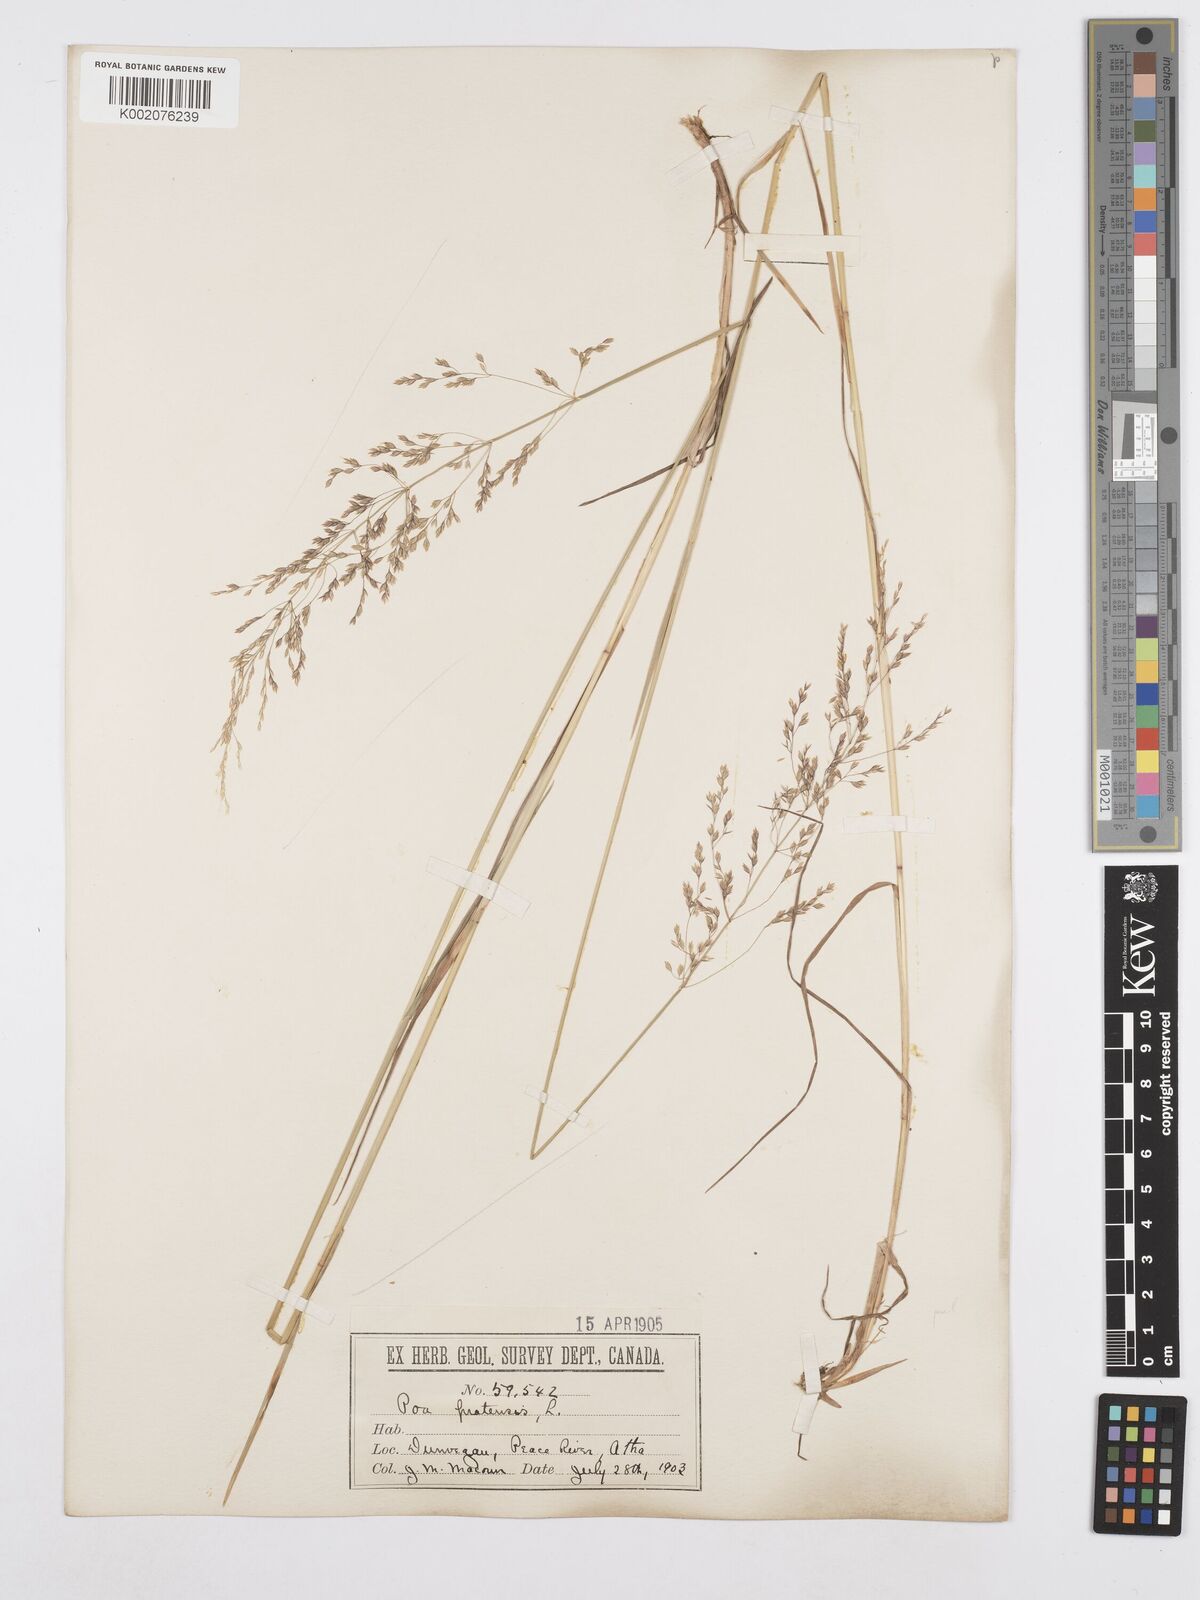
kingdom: Plantae
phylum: Tracheophyta
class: Liliopsida
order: Poales
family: Poaceae
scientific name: Poaceae
